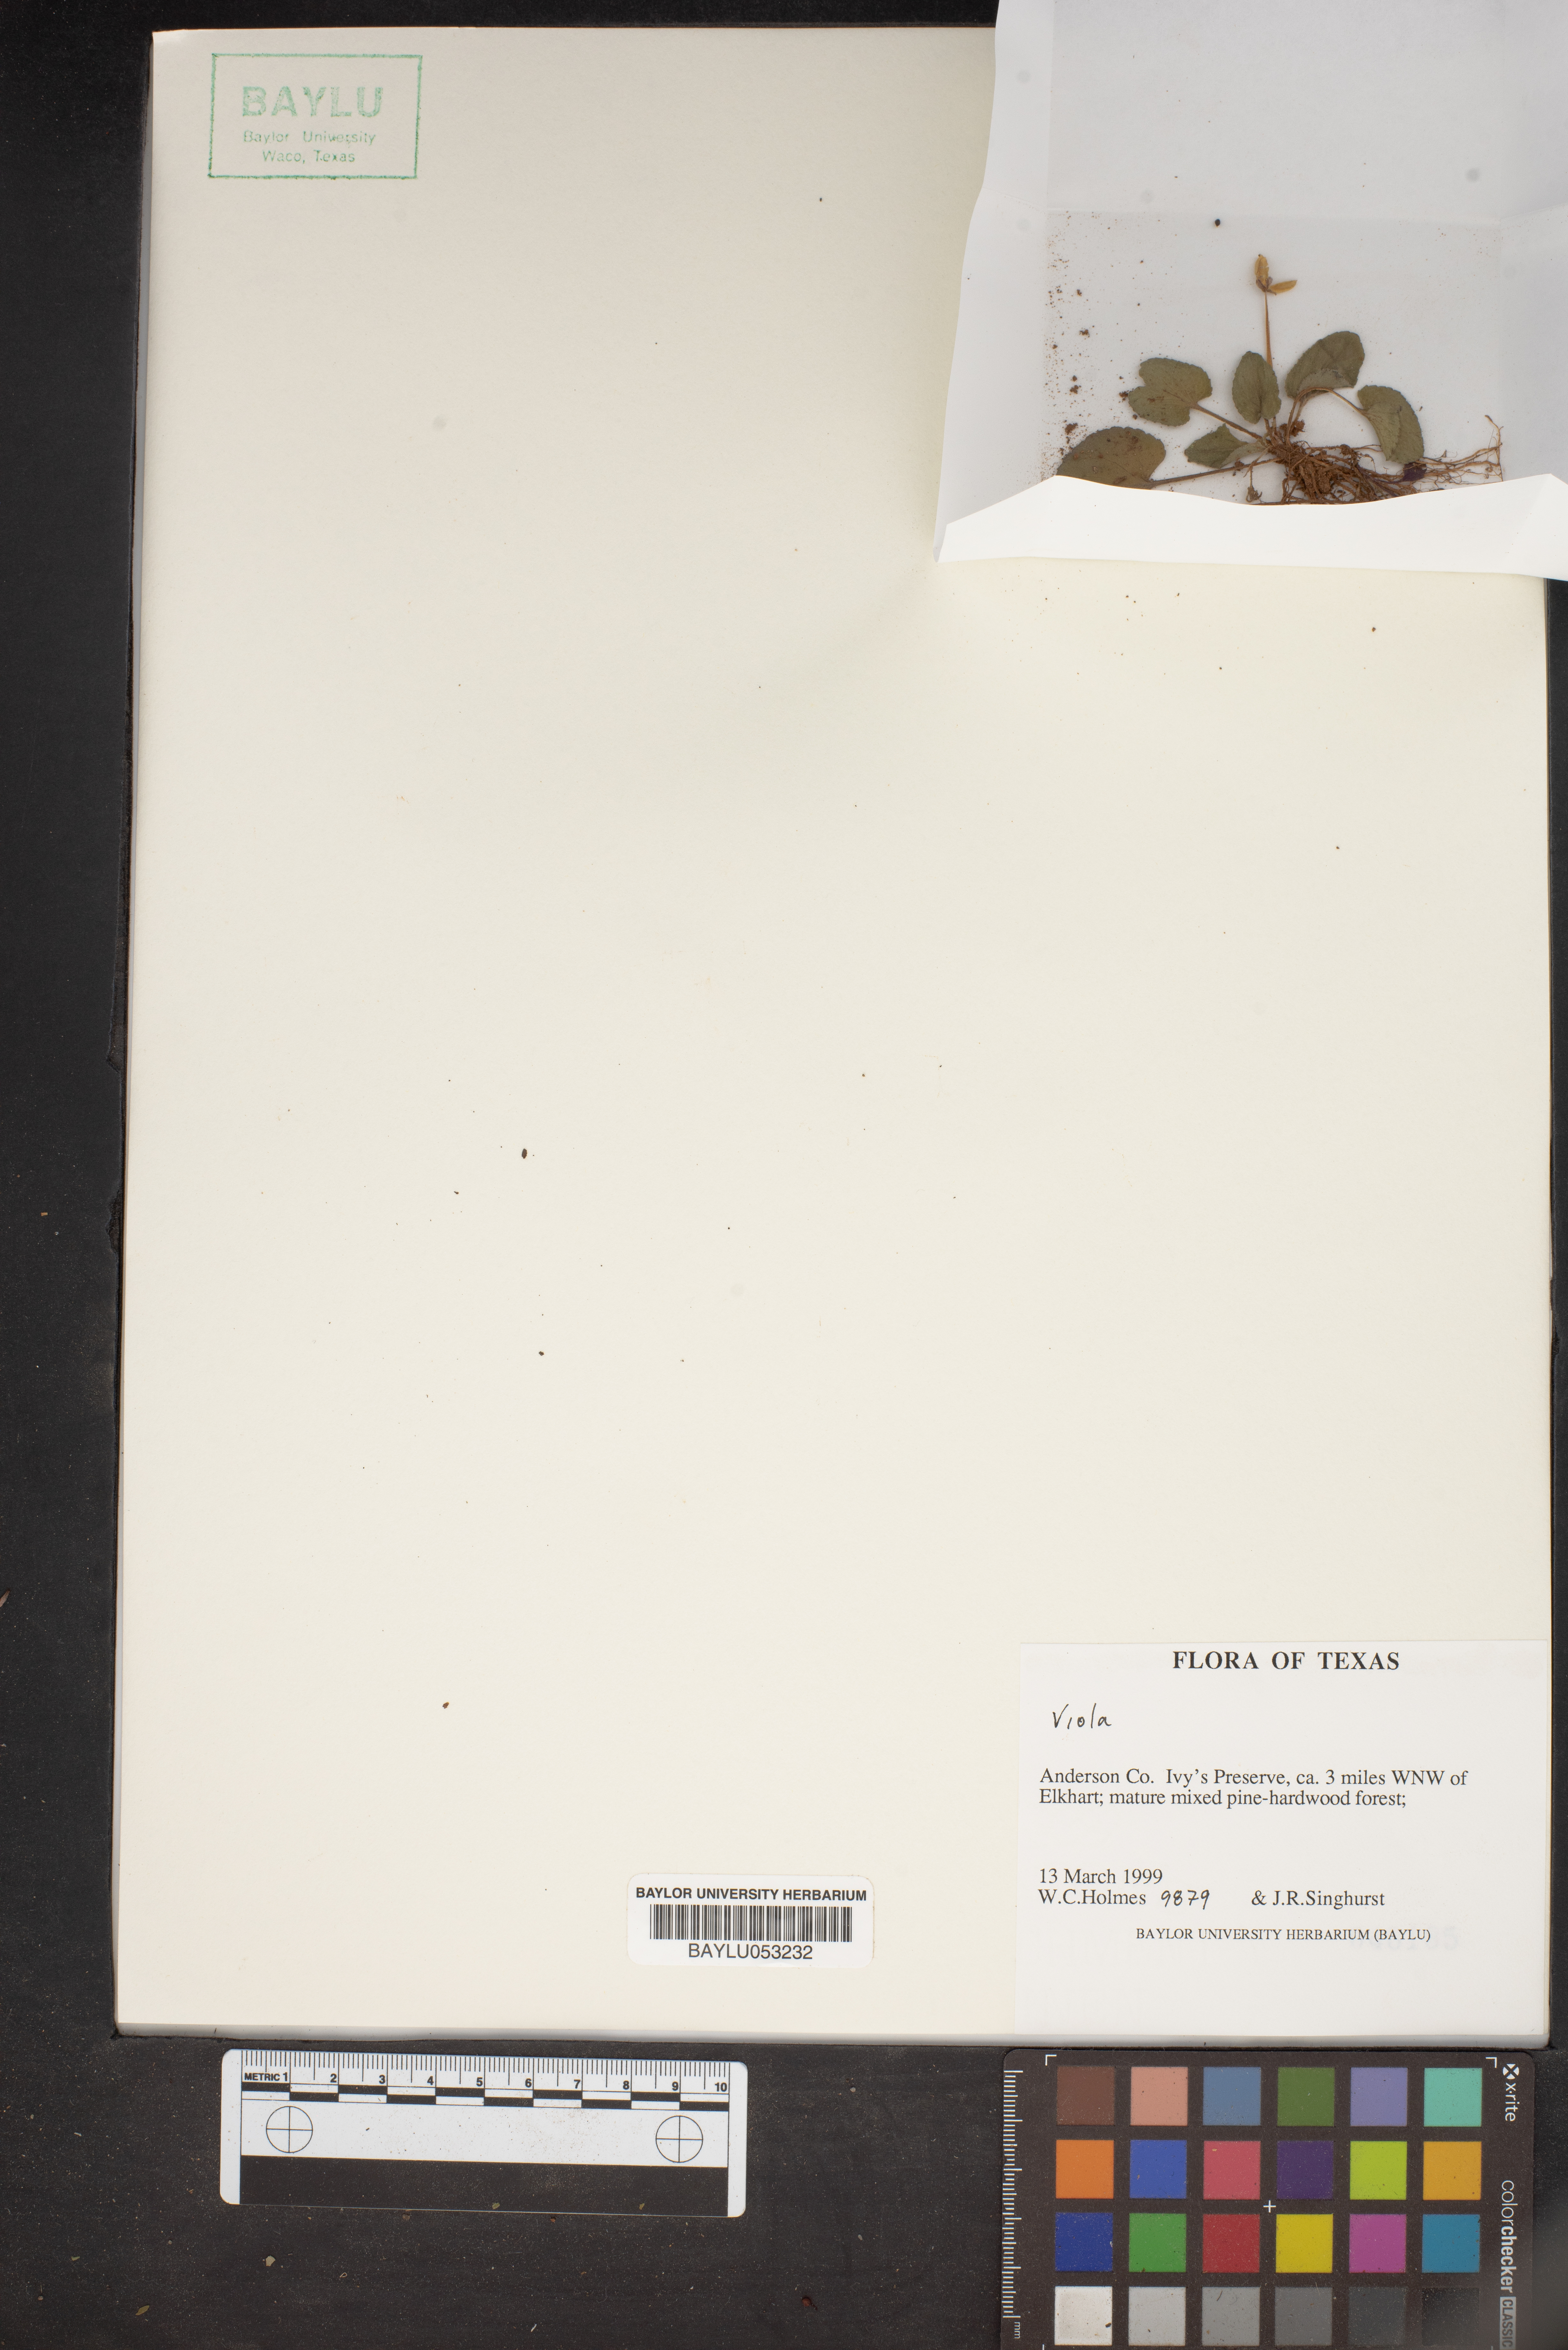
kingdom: Plantae
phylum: Tracheophyta
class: Magnoliopsida
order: Malpighiales
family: Violaceae
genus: Viola
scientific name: Viola
